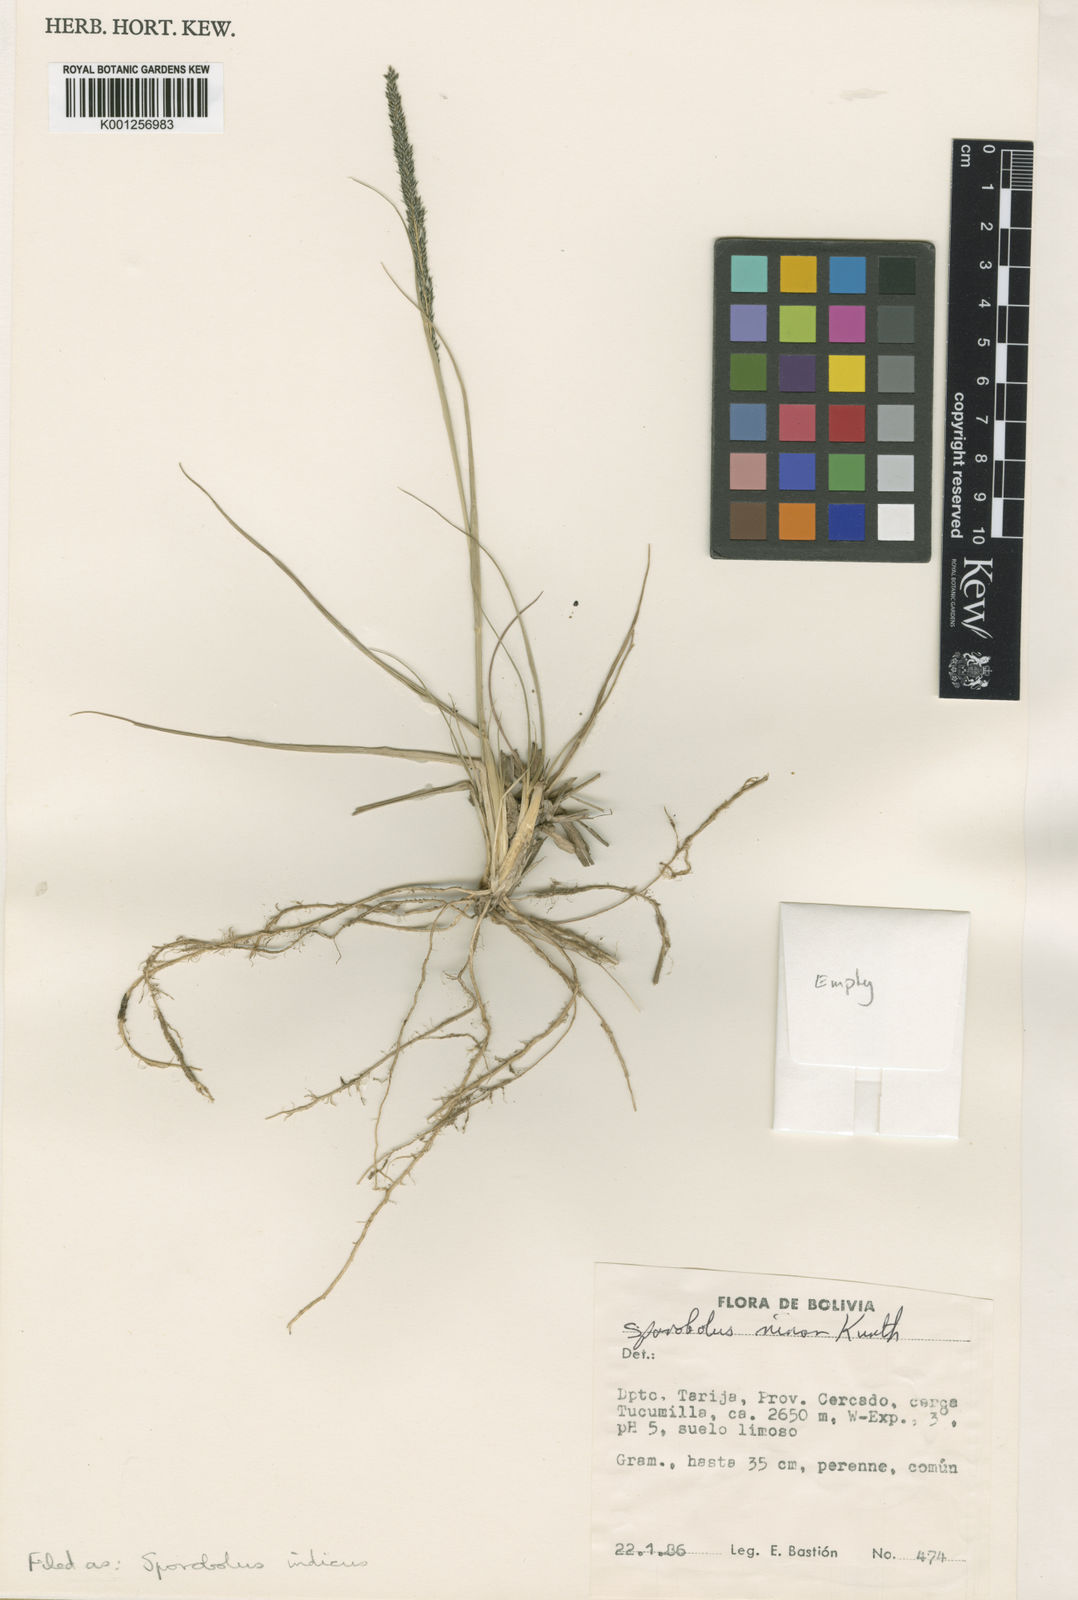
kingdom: Plantae
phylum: Tracheophyta
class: Liliopsida
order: Poales
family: Poaceae
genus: Sporobolus
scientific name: Sporobolus indicus
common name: Smut grass
